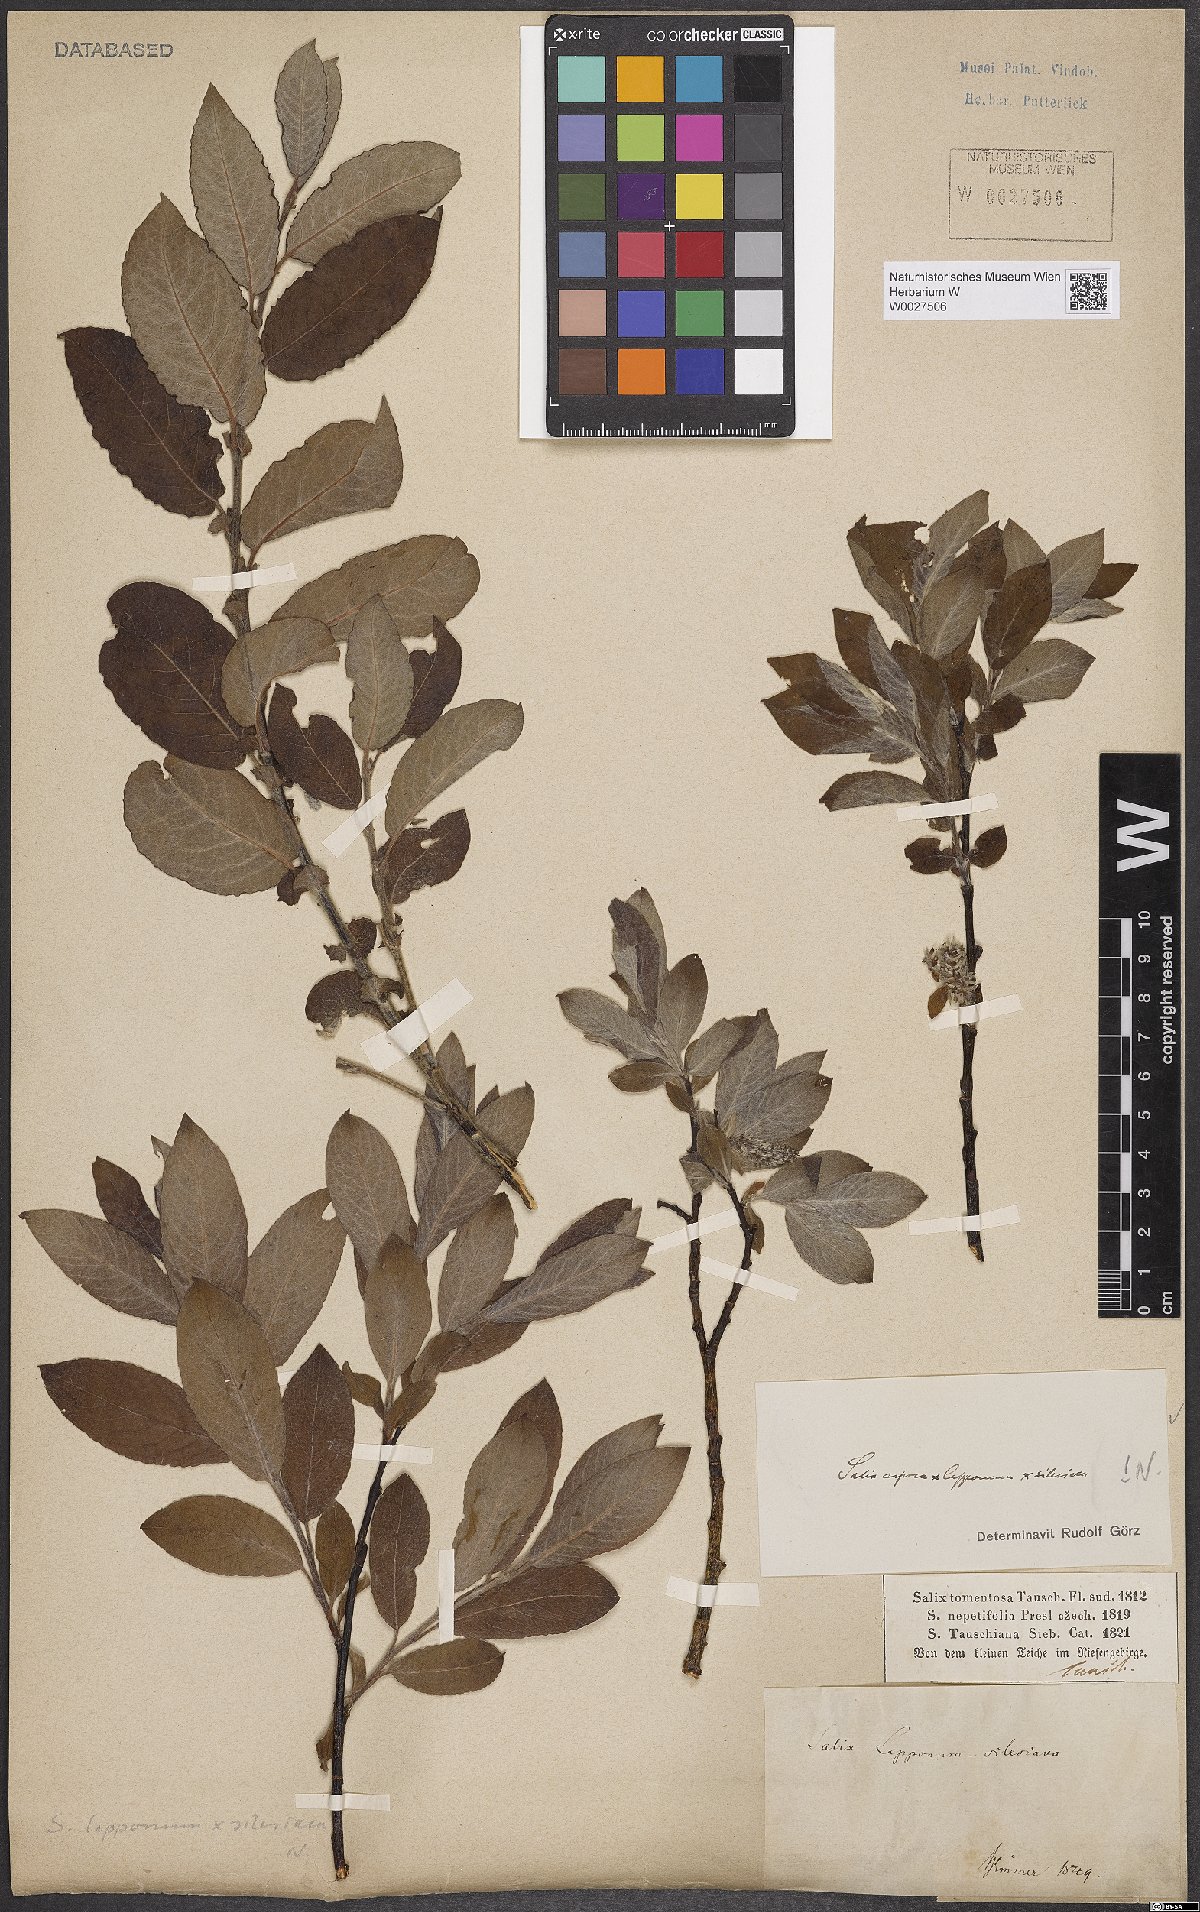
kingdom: Plantae
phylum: Tracheophyta
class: Magnoliopsida
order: Malpighiales
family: Salicaceae
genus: Salix
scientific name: Salix
